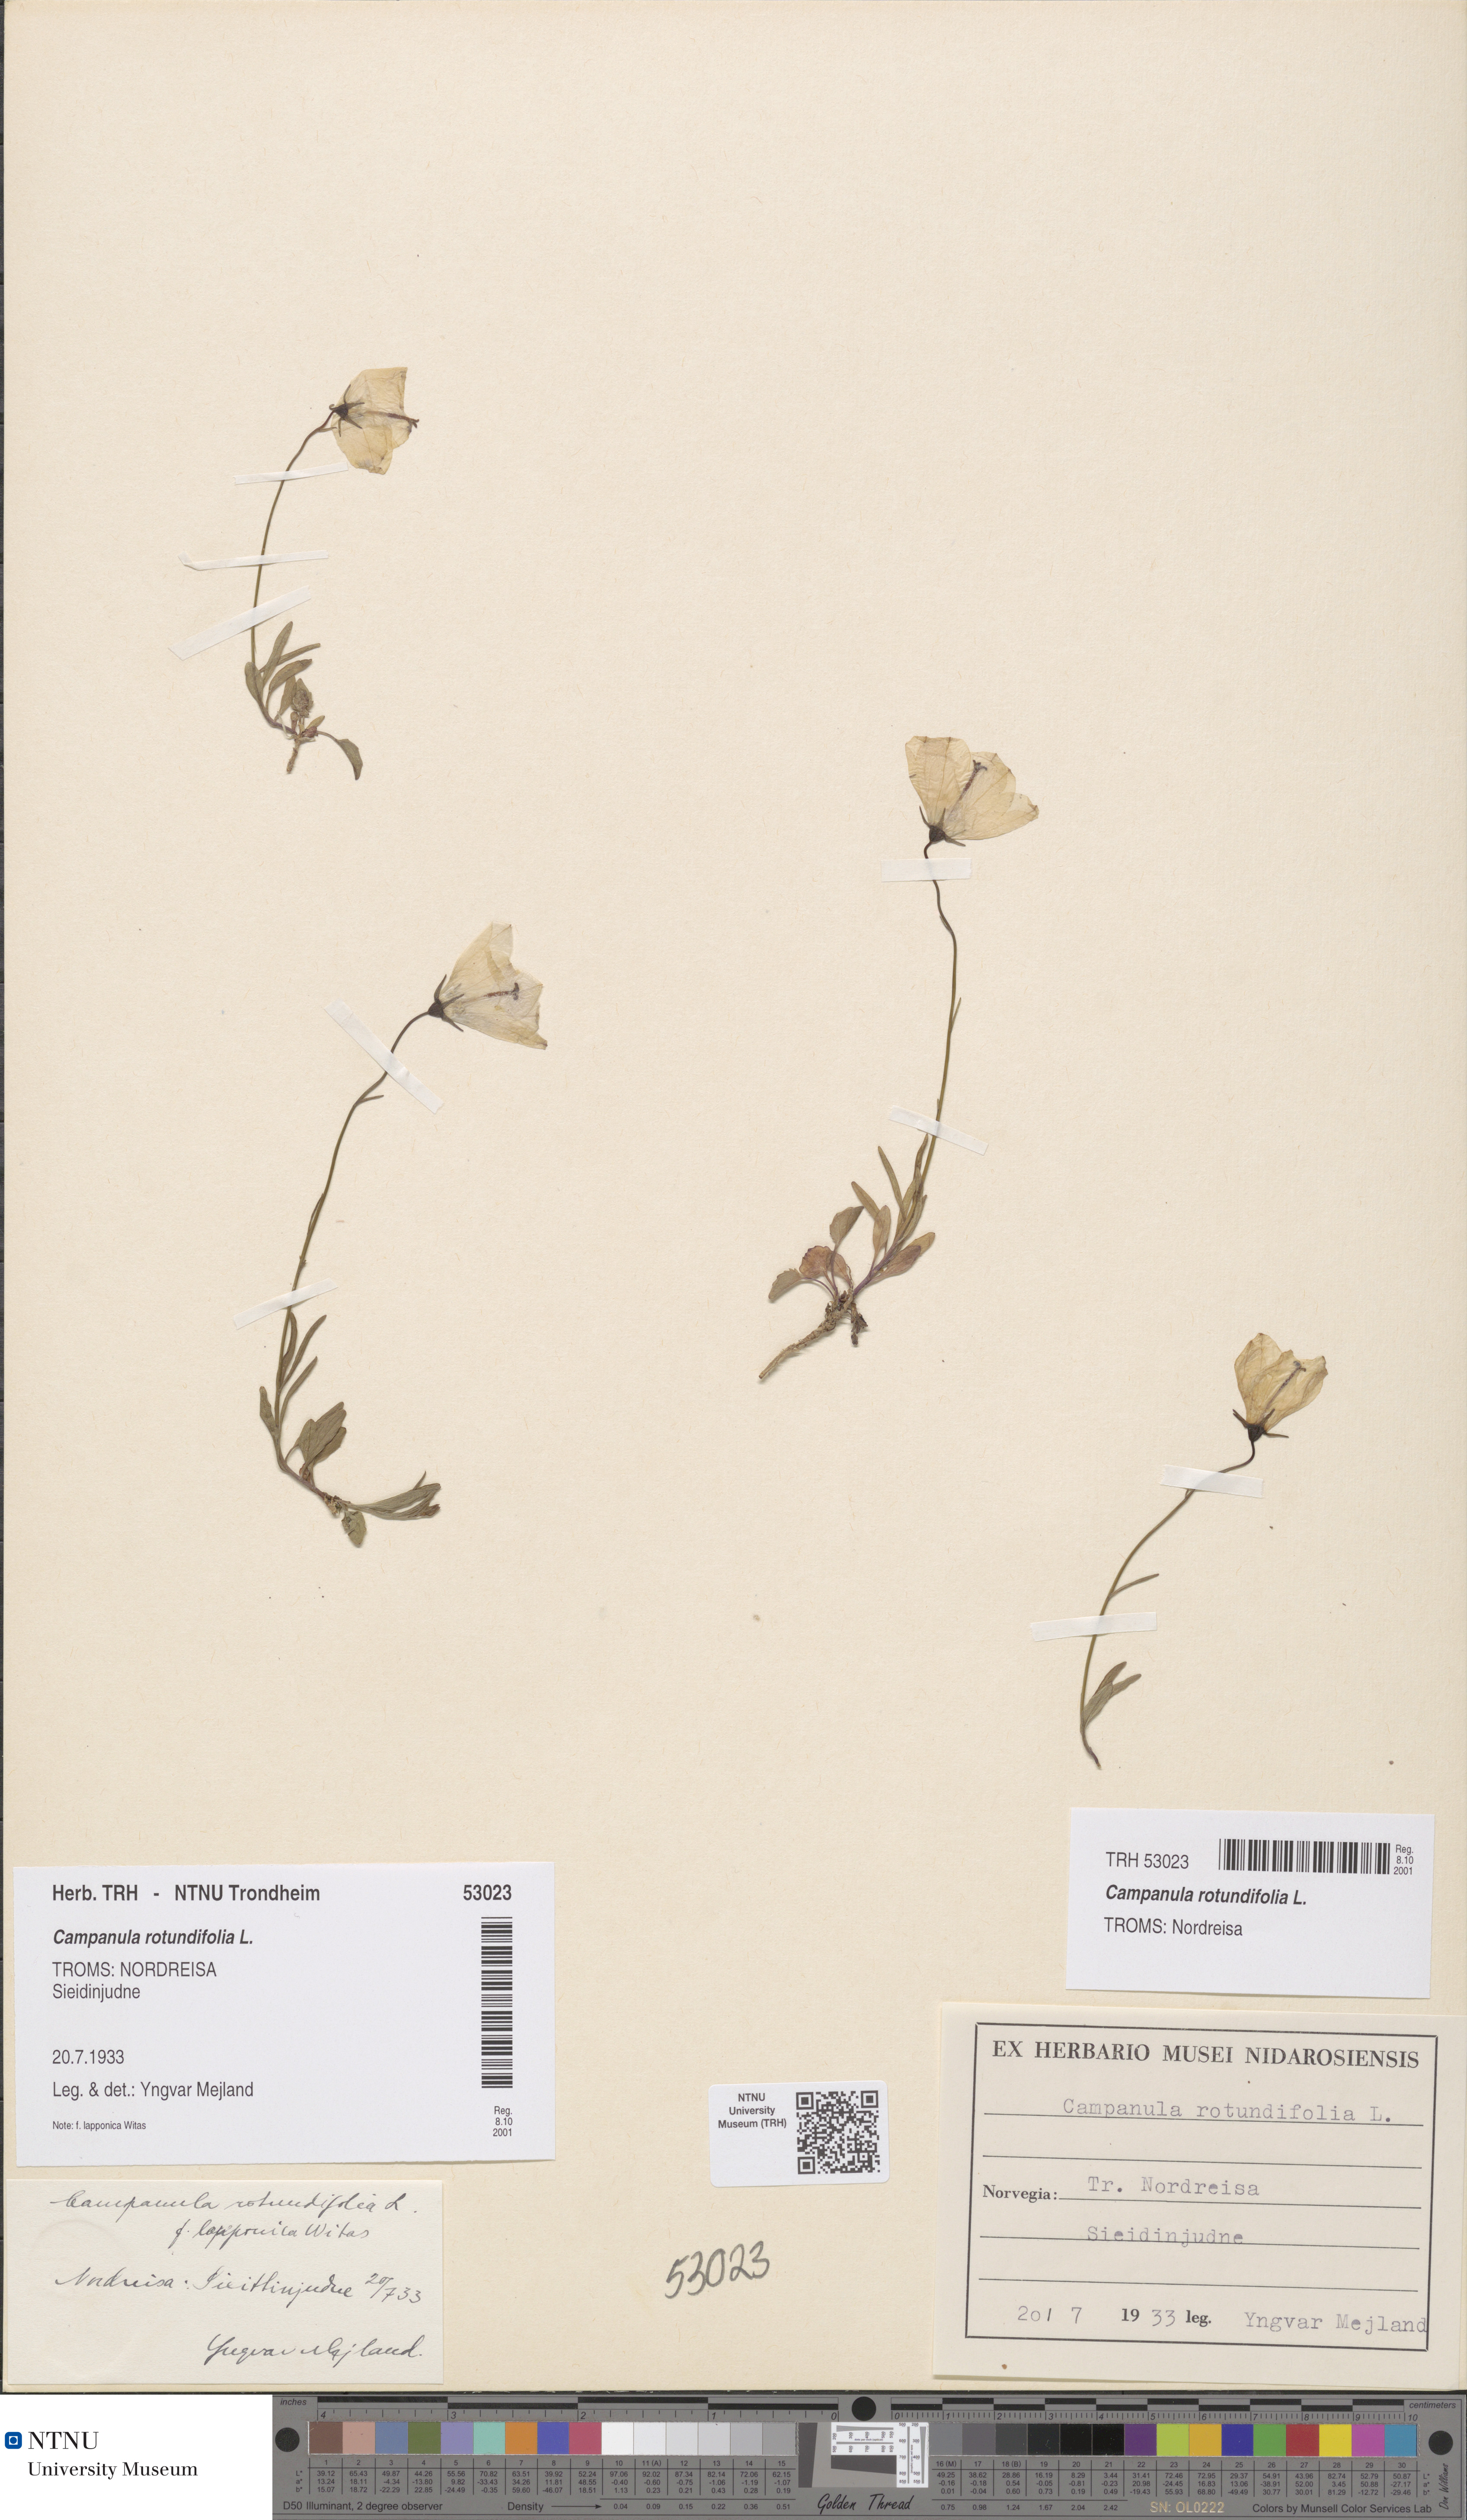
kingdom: Plantae
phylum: Tracheophyta
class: Magnoliopsida
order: Asterales
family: Campanulaceae
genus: Campanula
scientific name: Campanula rotundifolia
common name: Harebell
